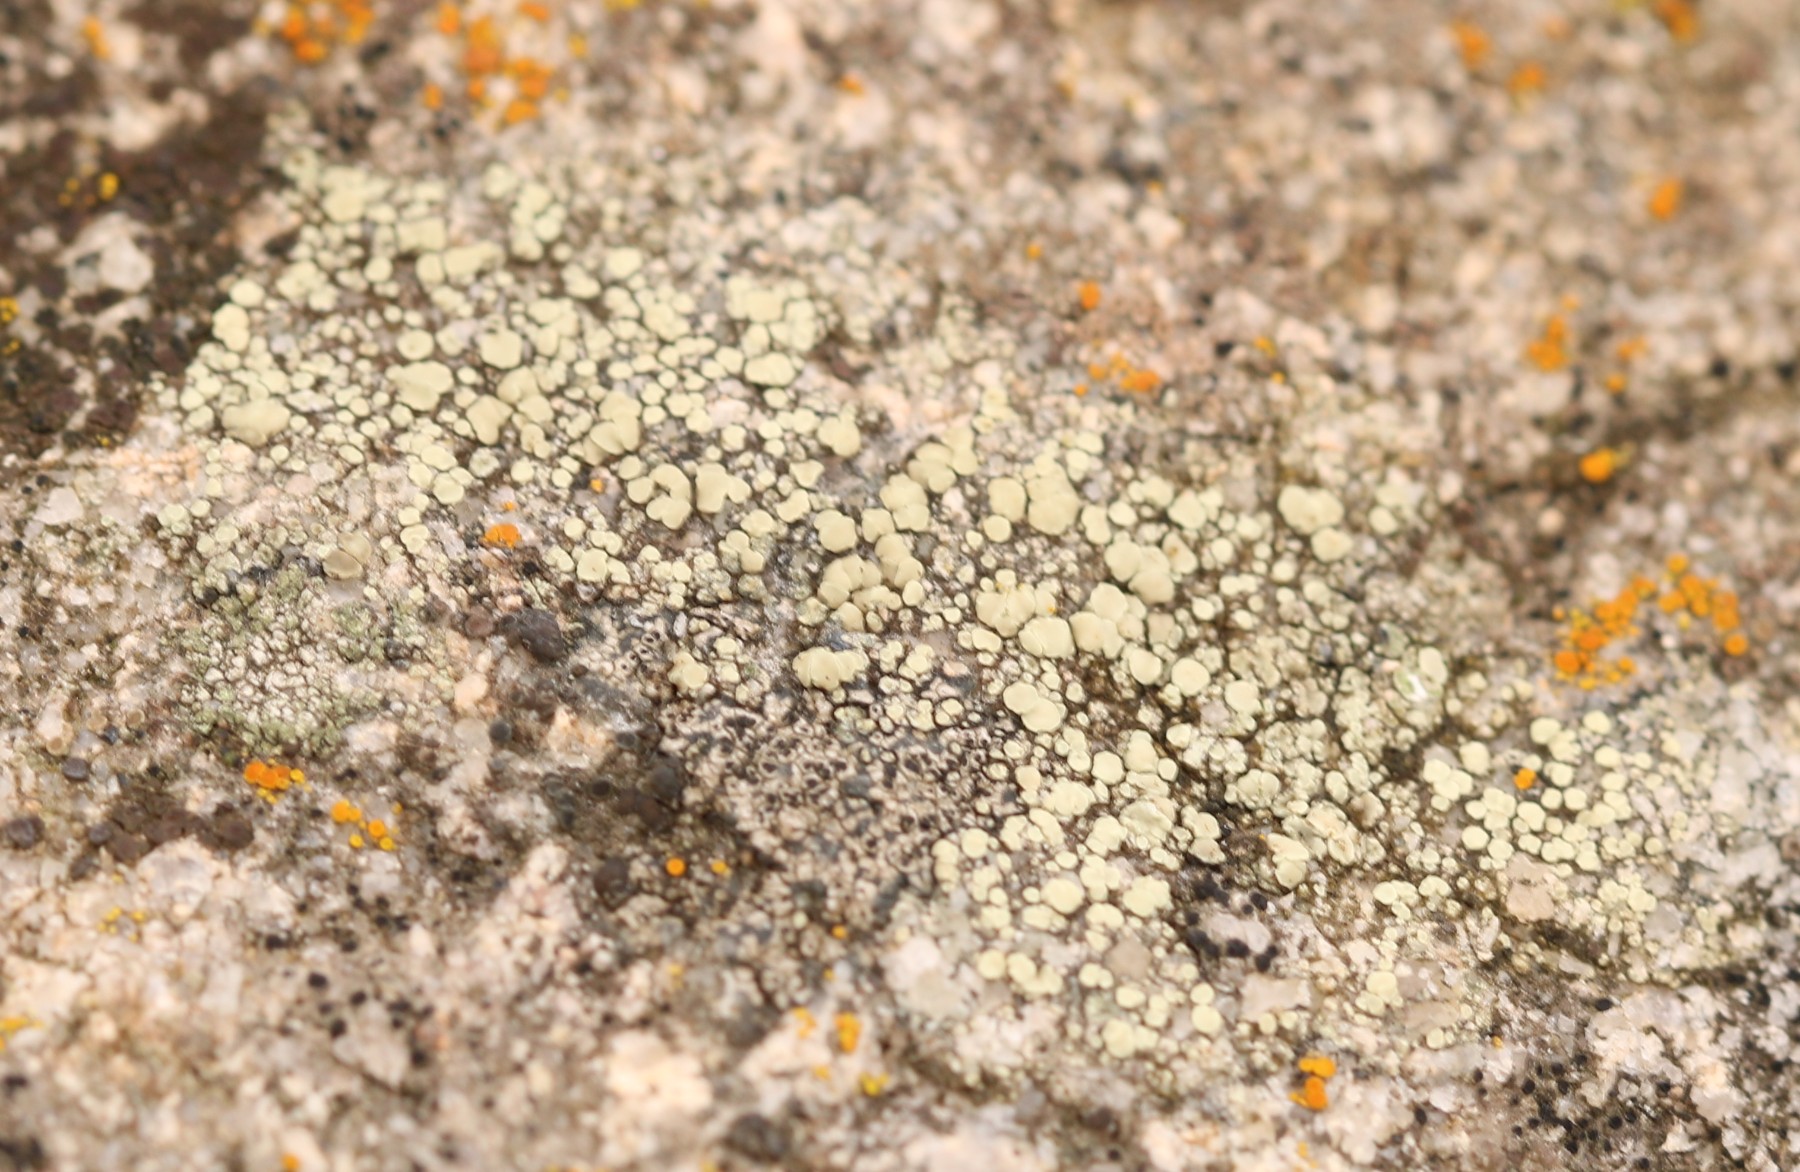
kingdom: Fungi
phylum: Ascomycota
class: Lecanoromycetes
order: Lecanorales
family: Lecanoraceae
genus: Lecanora
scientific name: Lecanora polytropa
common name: bleggrøn kantskivelav
